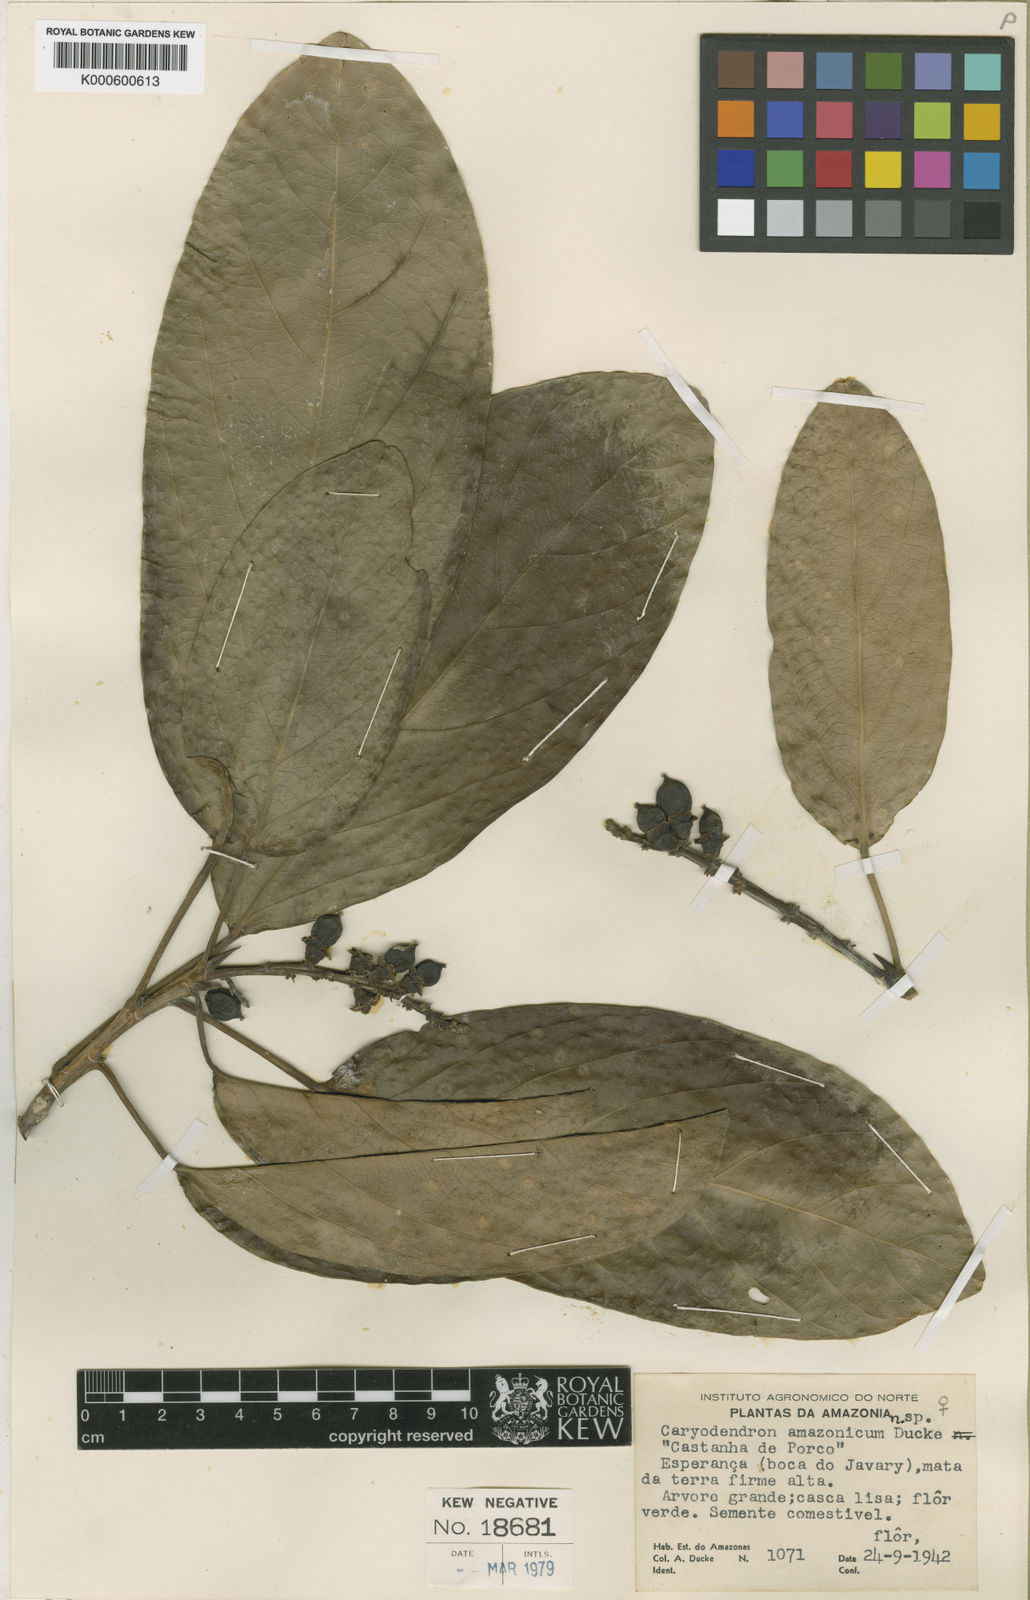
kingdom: Plantae
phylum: Tracheophyta
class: Magnoliopsida
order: Malpighiales
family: Euphorbiaceae
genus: Caryodendron
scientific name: Caryodendron amazonicum
